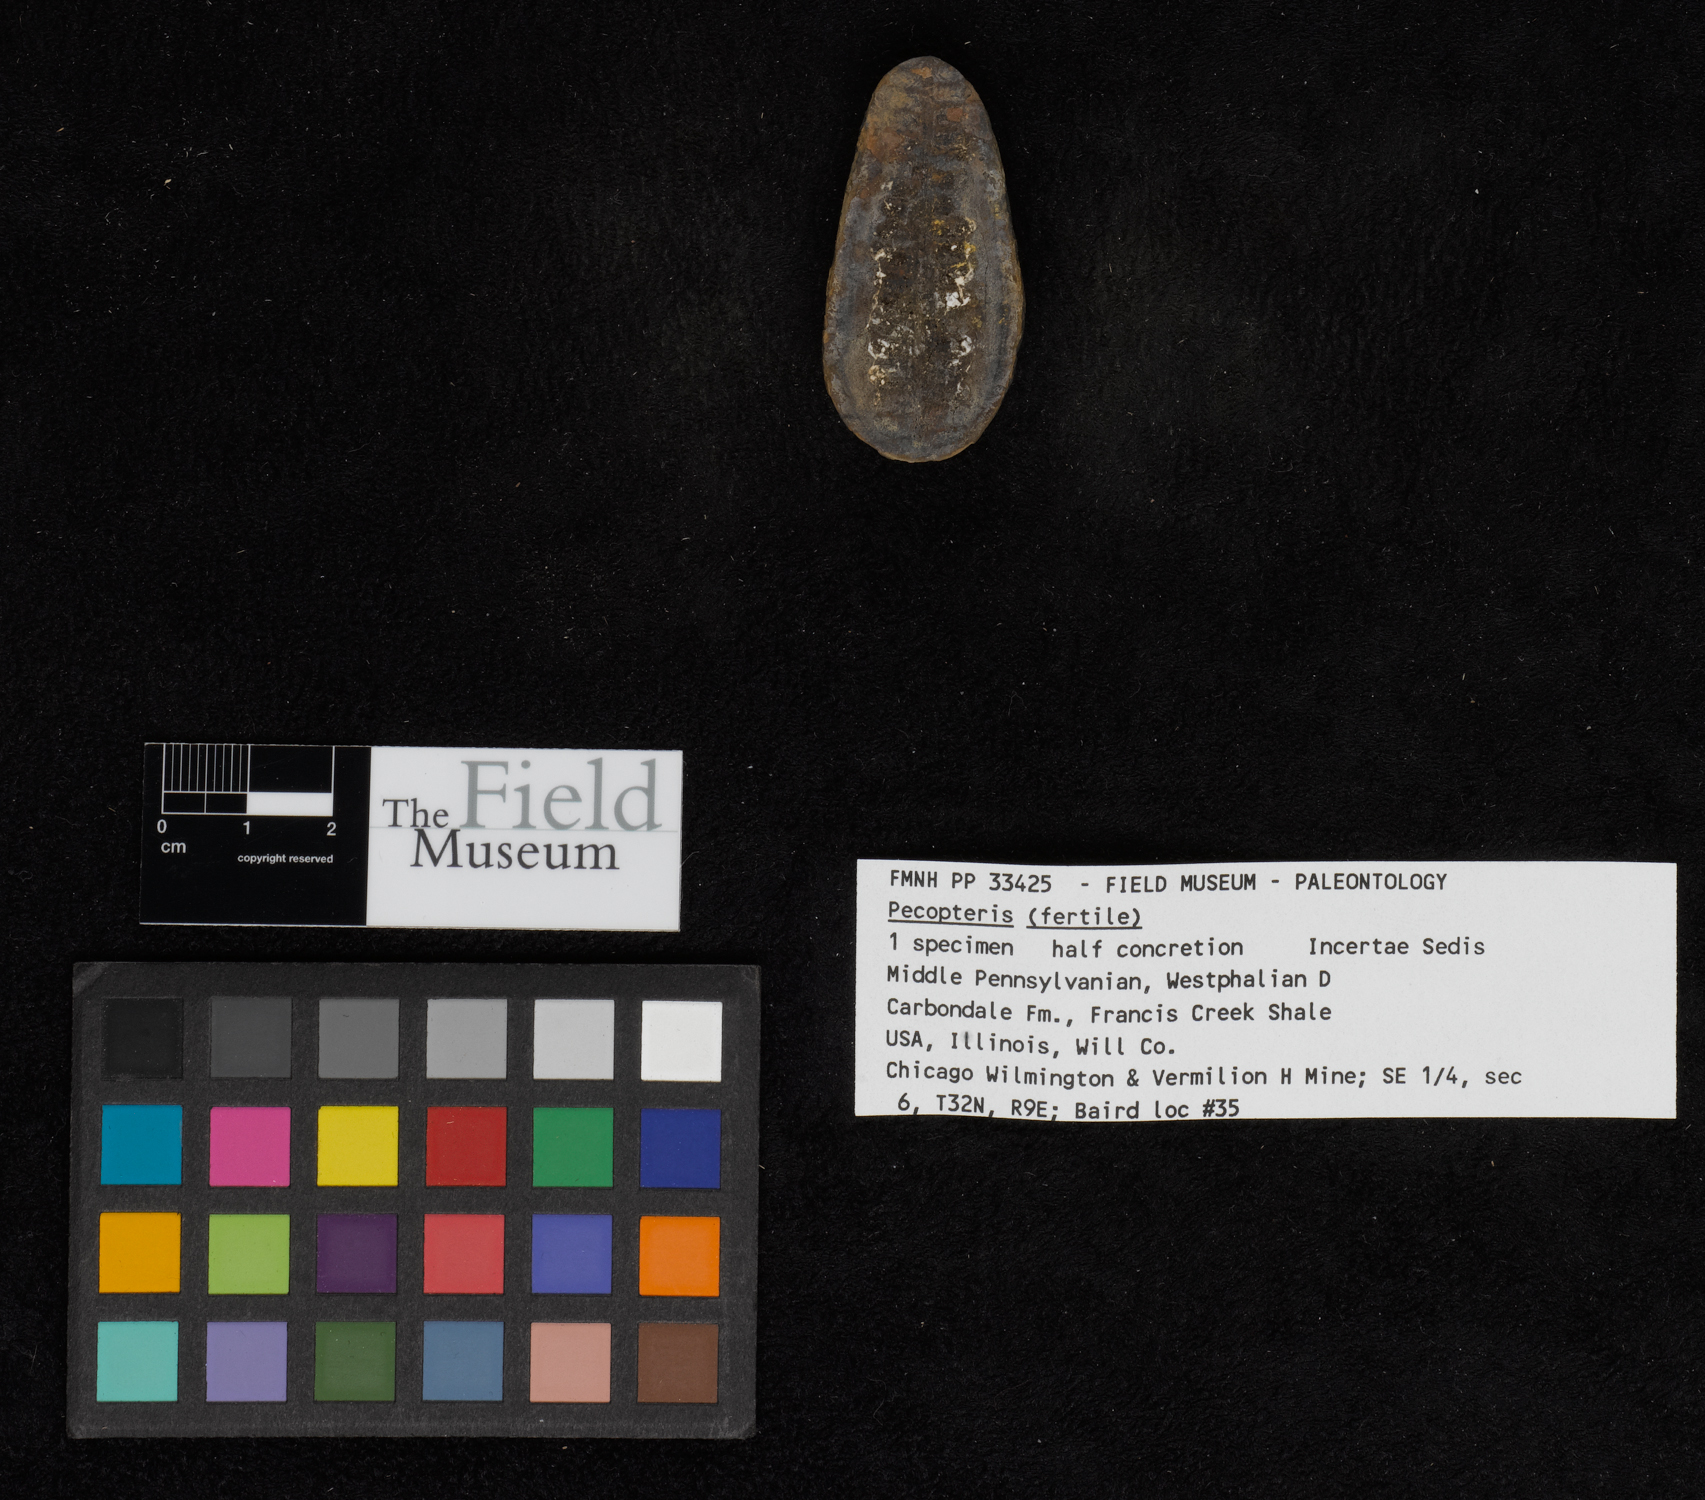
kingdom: Plantae
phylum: Tracheophyta
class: Polypodiopsida
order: Marattiales
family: Asterothecaceae
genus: Pecopteris
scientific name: Pecopteris
